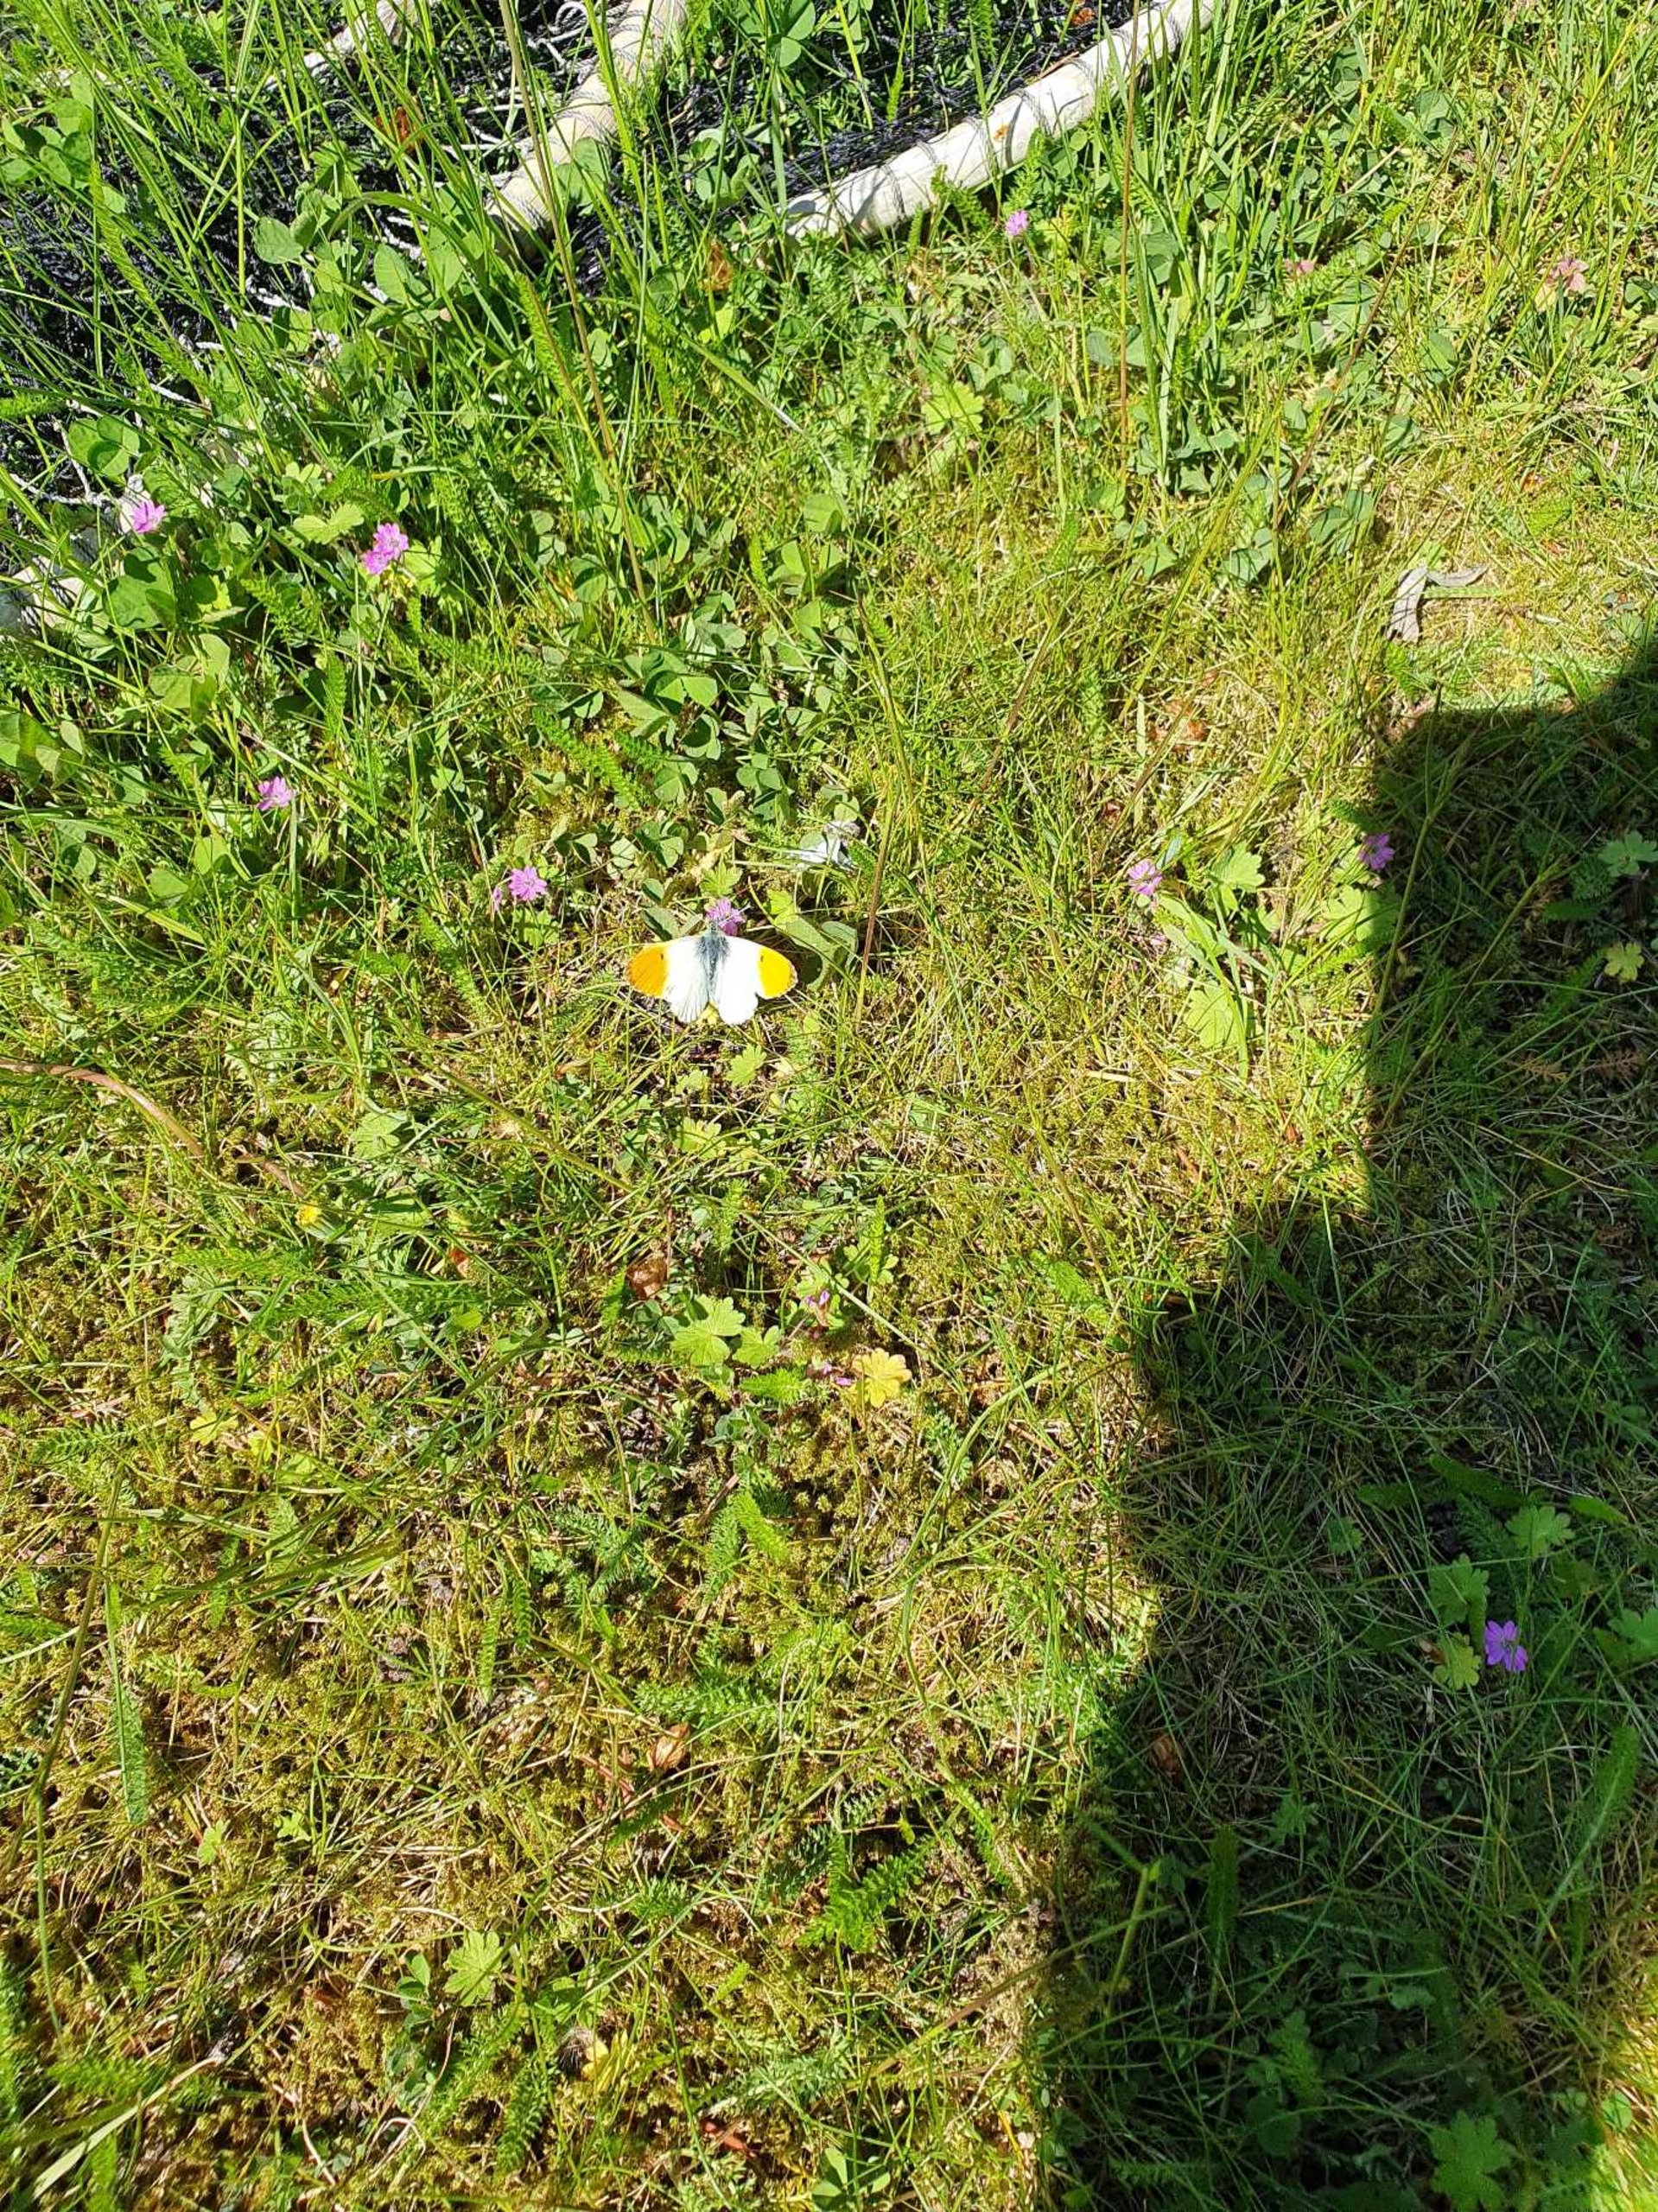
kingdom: Animalia
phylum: Arthropoda
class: Insecta
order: Lepidoptera
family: Pieridae
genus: Anthocharis
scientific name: Anthocharis cardamines
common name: Aurora
